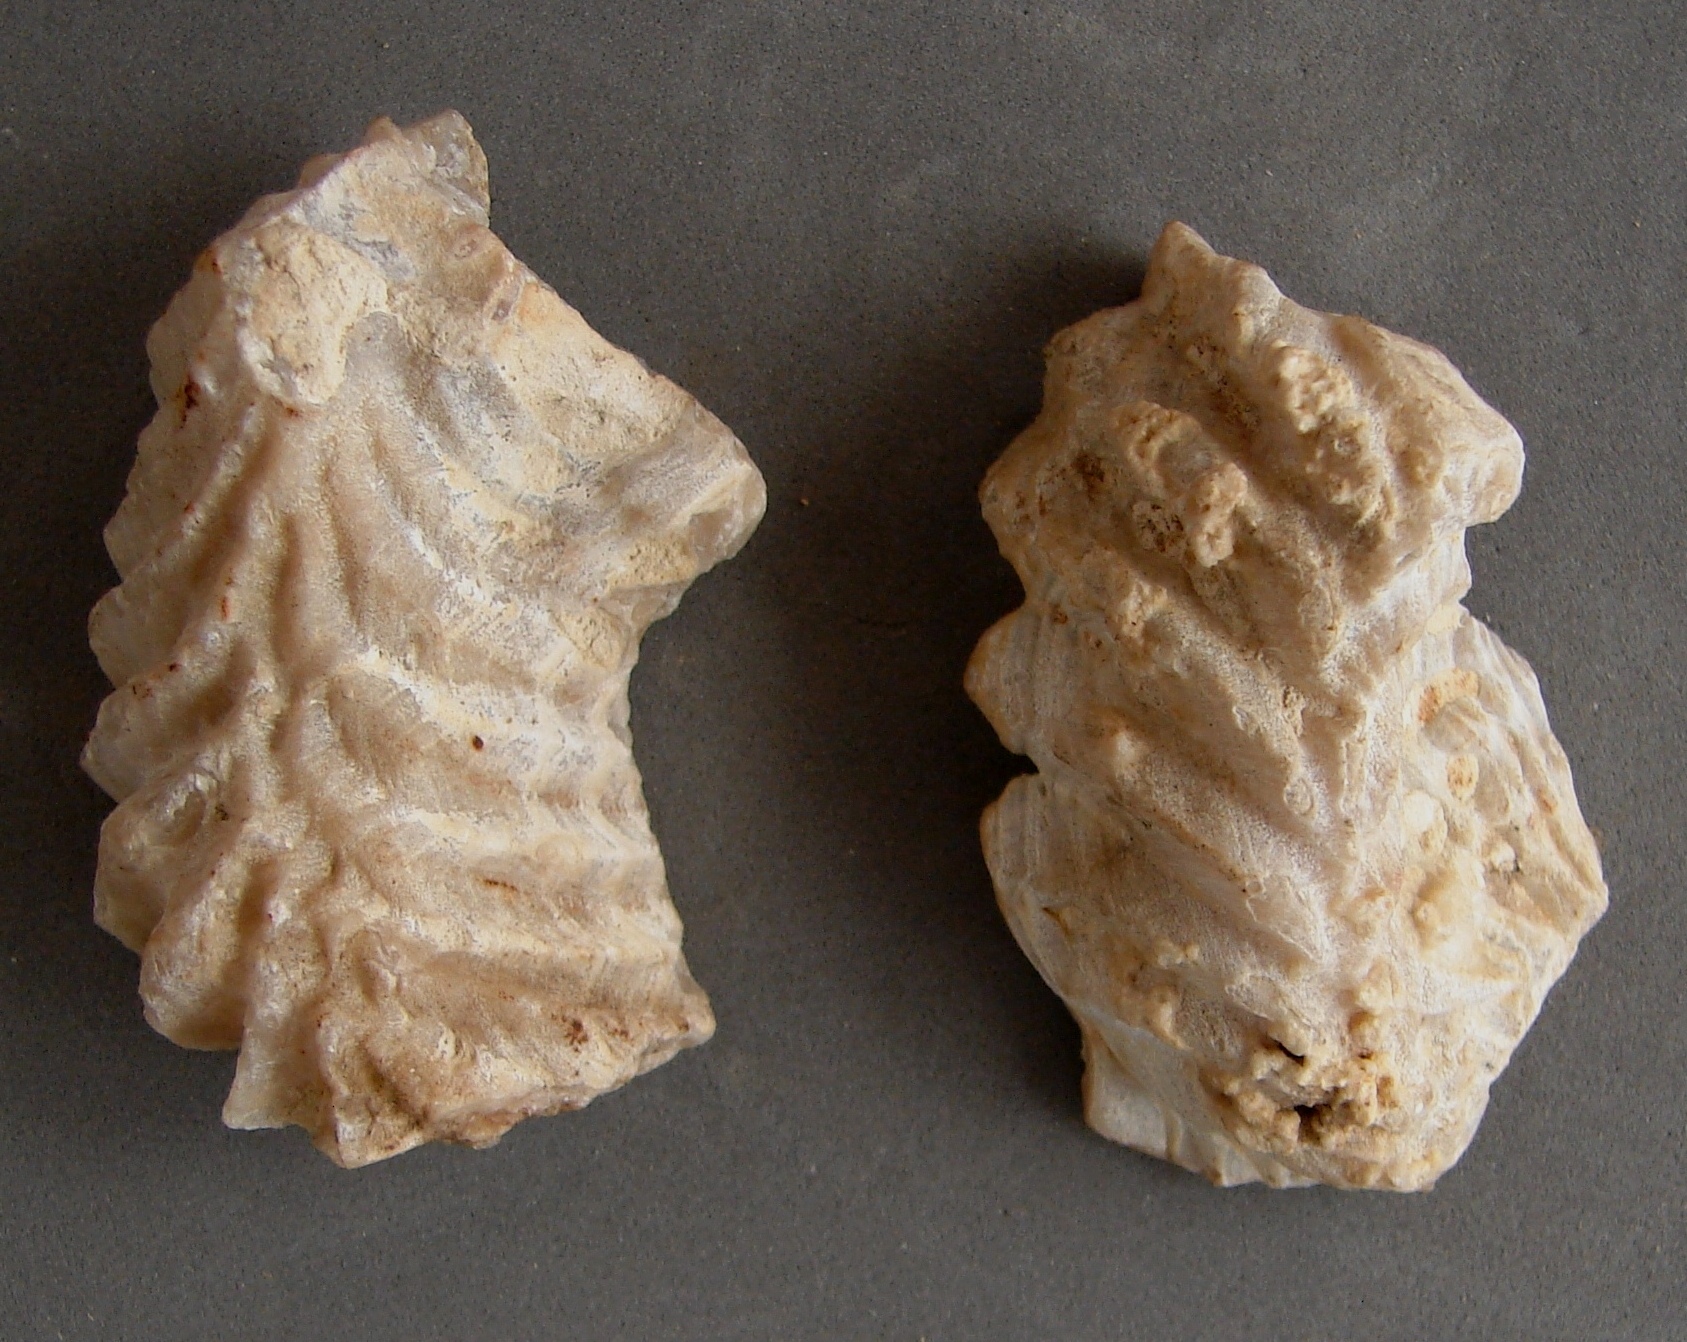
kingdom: Animalia
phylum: Mollusca
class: Bivalvia
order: Ostreida
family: Ostreidae
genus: Ostrea
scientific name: Ostrea marshii
